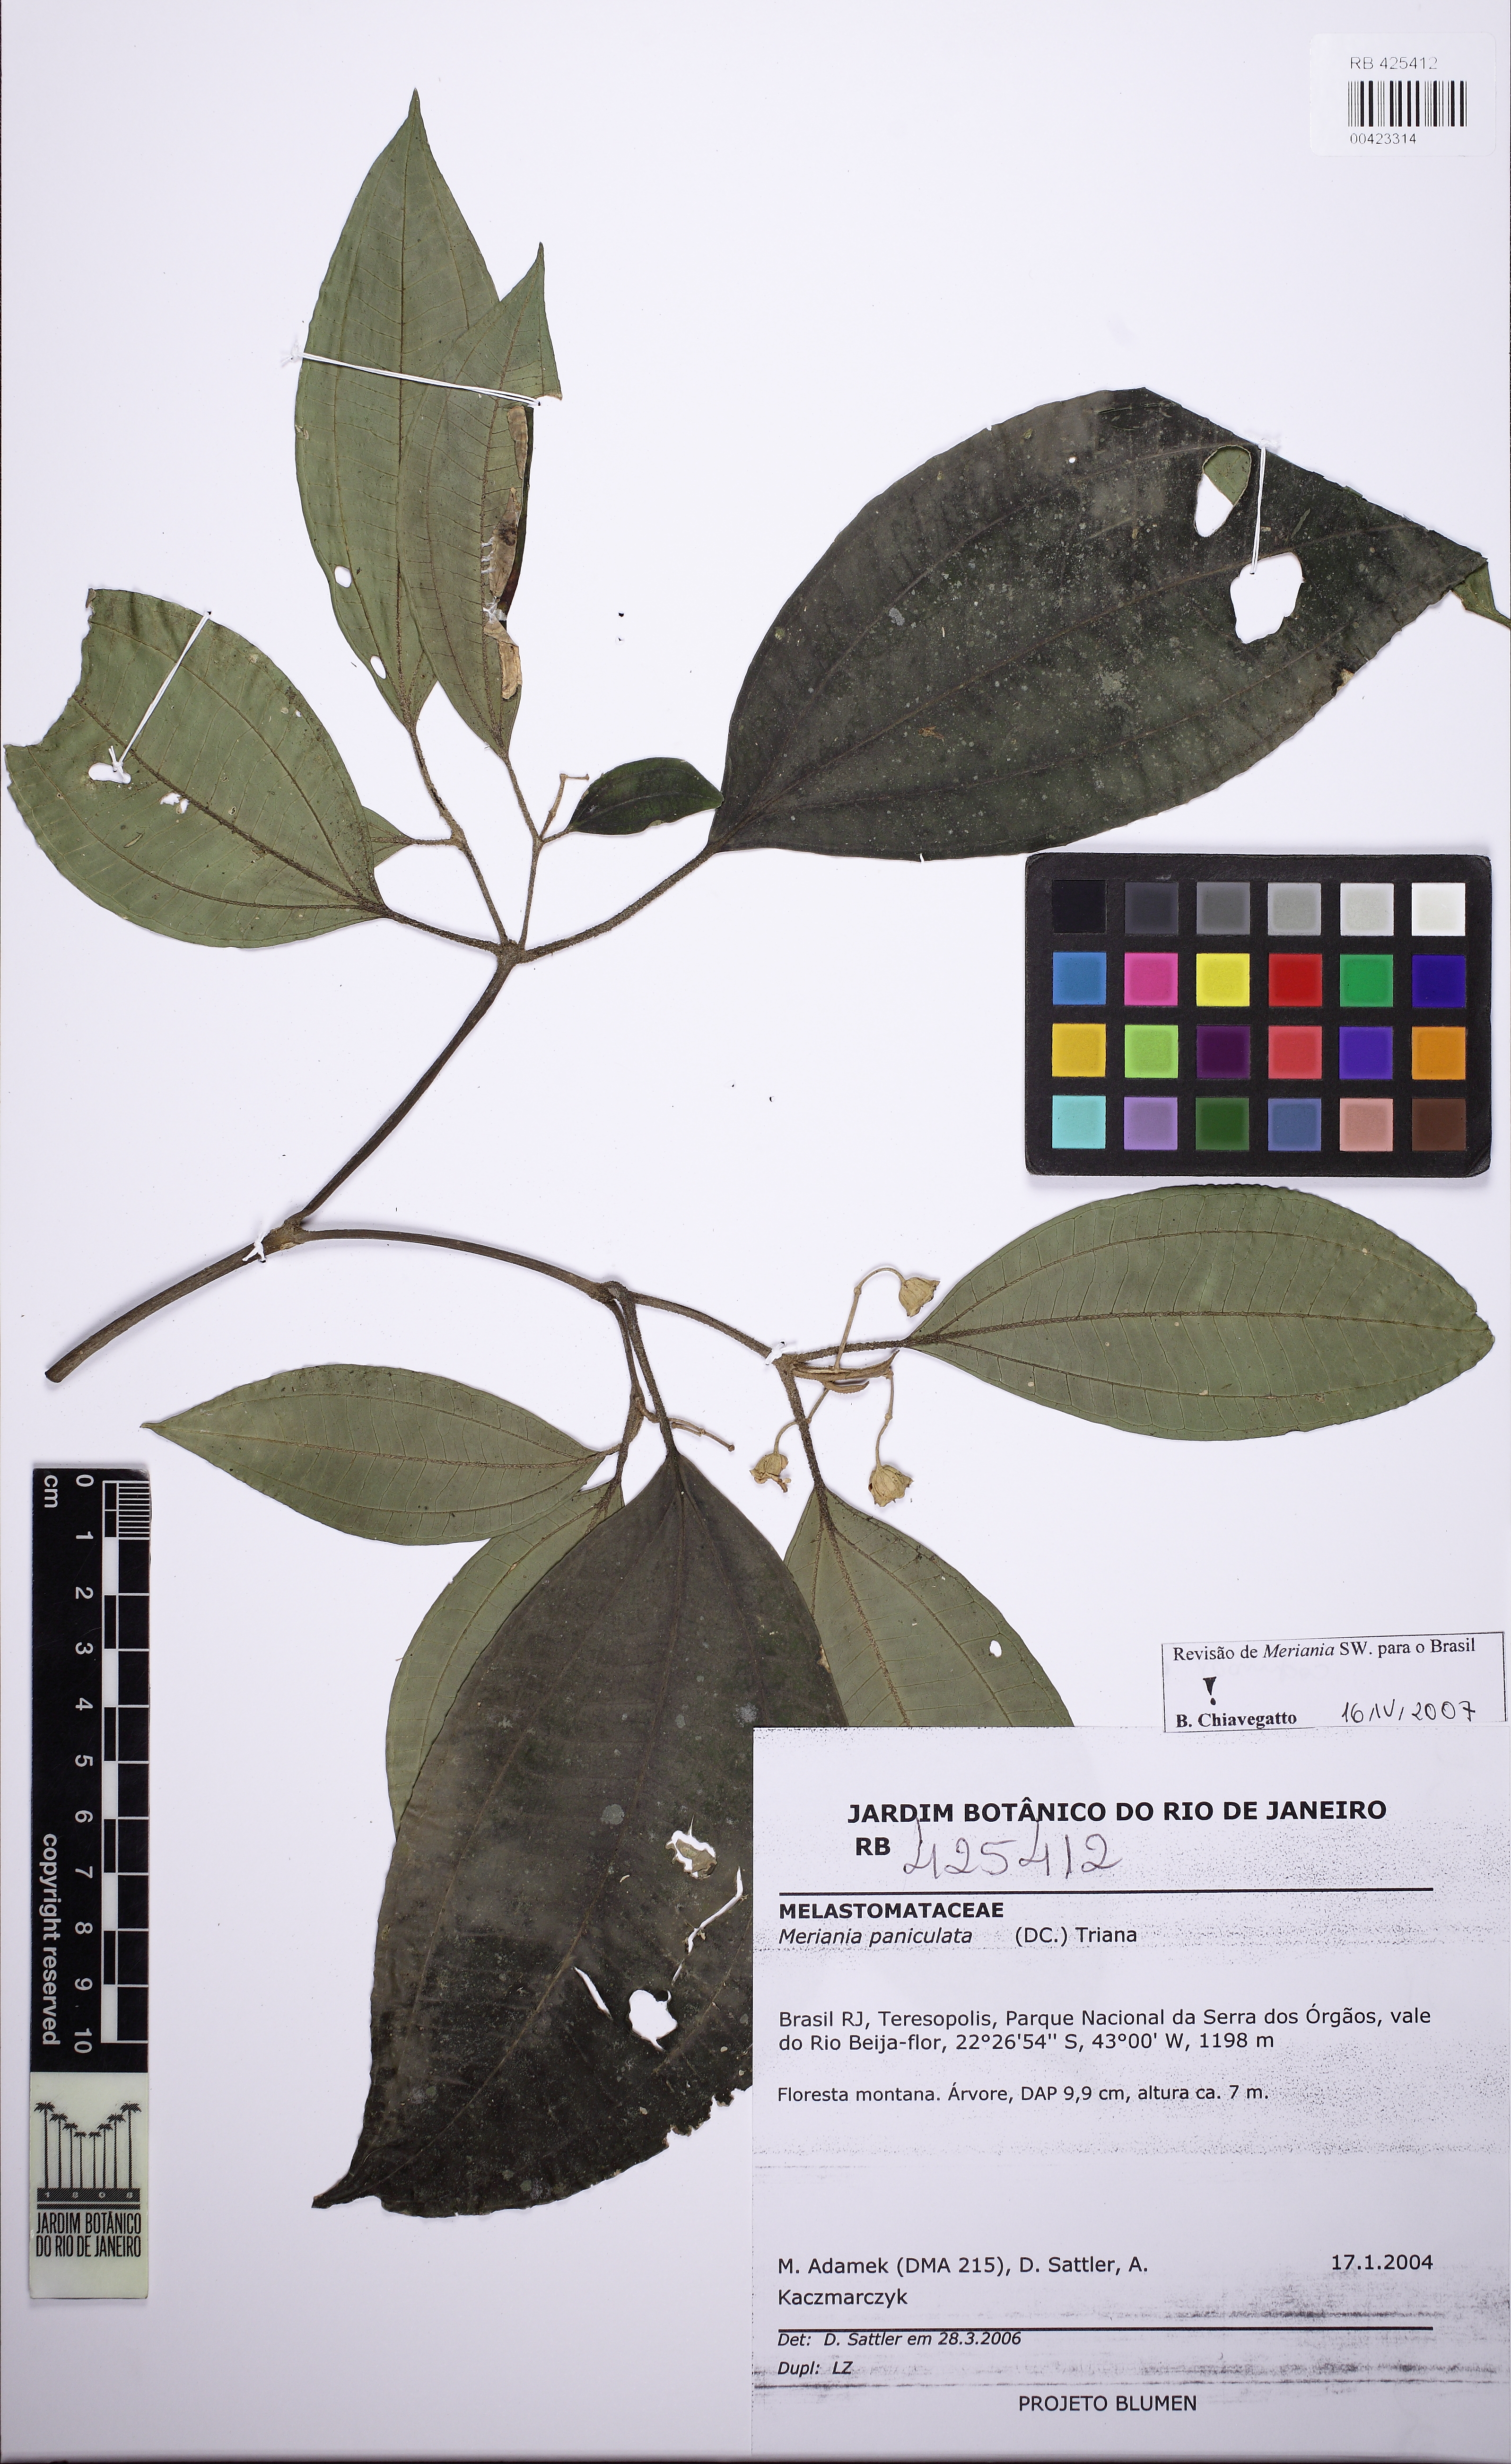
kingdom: Plantae
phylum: Tracheophyta
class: Magnoliopsida
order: Myrtales
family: Melastomataceae
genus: Meriania
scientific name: Meriania paniculata
